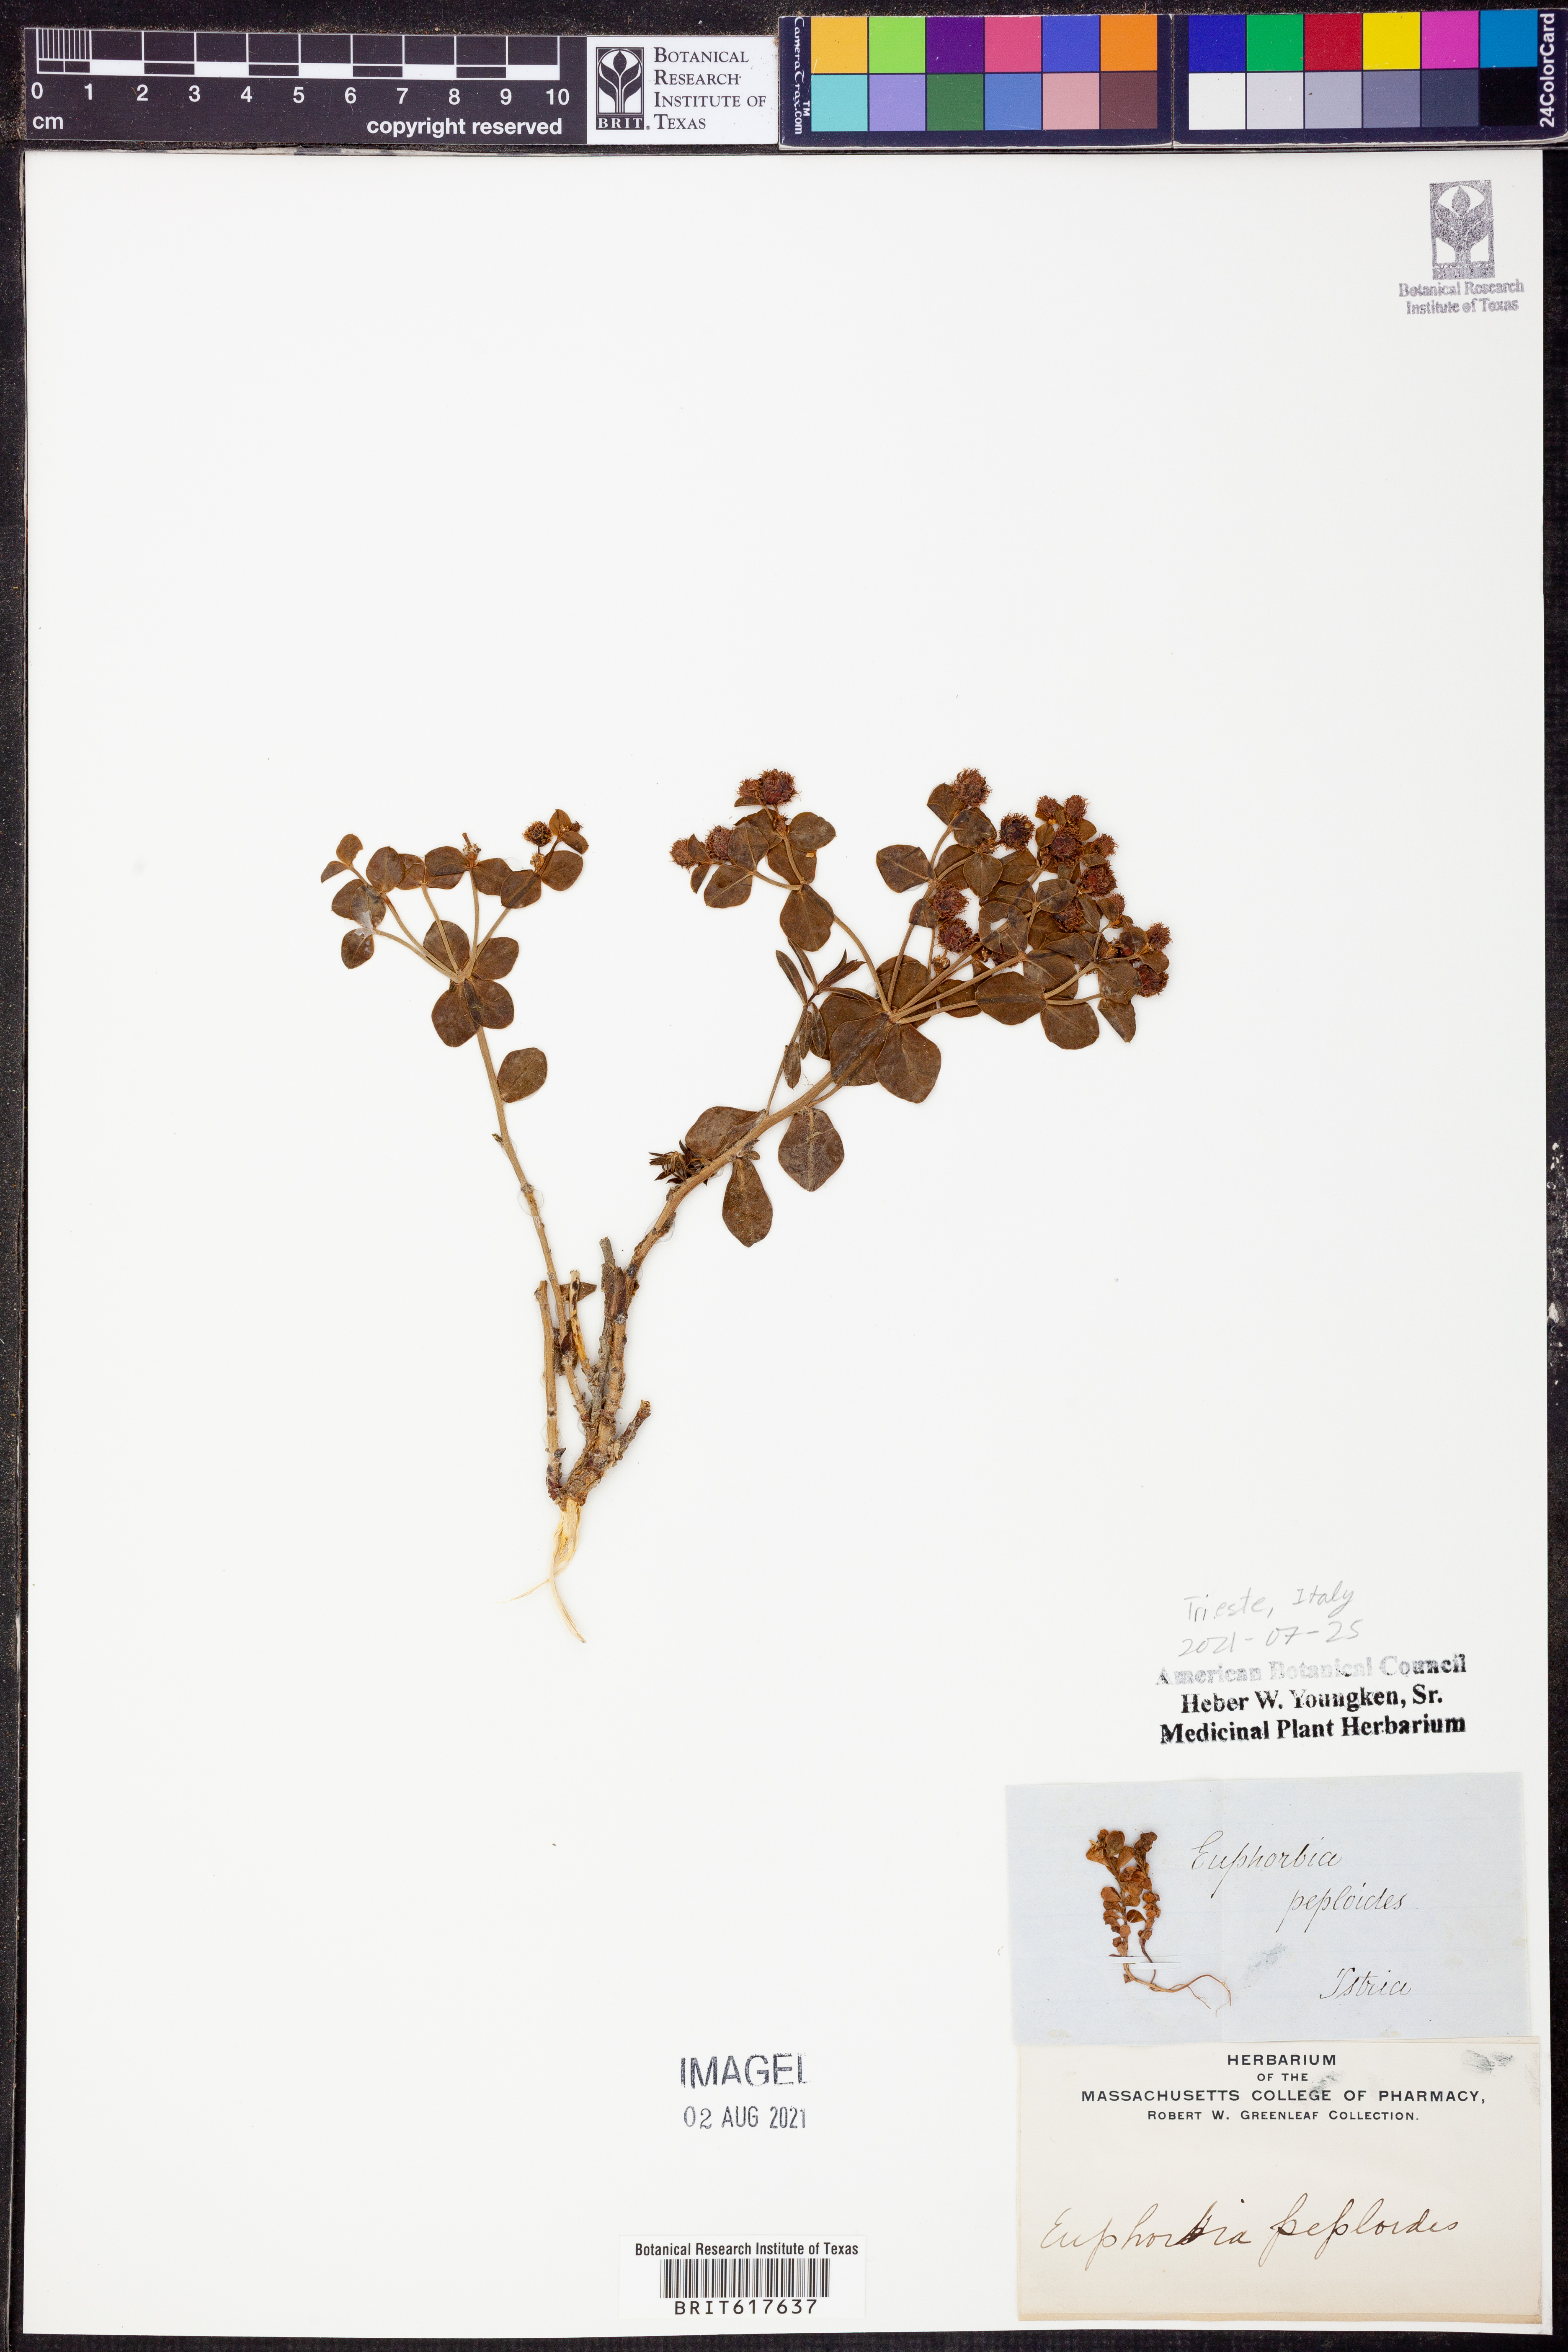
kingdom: Plantae
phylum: Tracheophyta
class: Magnoliopsida
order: Malpighiales
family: Euphorbiaceae
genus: Euphorbia
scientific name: Euphorbia peploides
